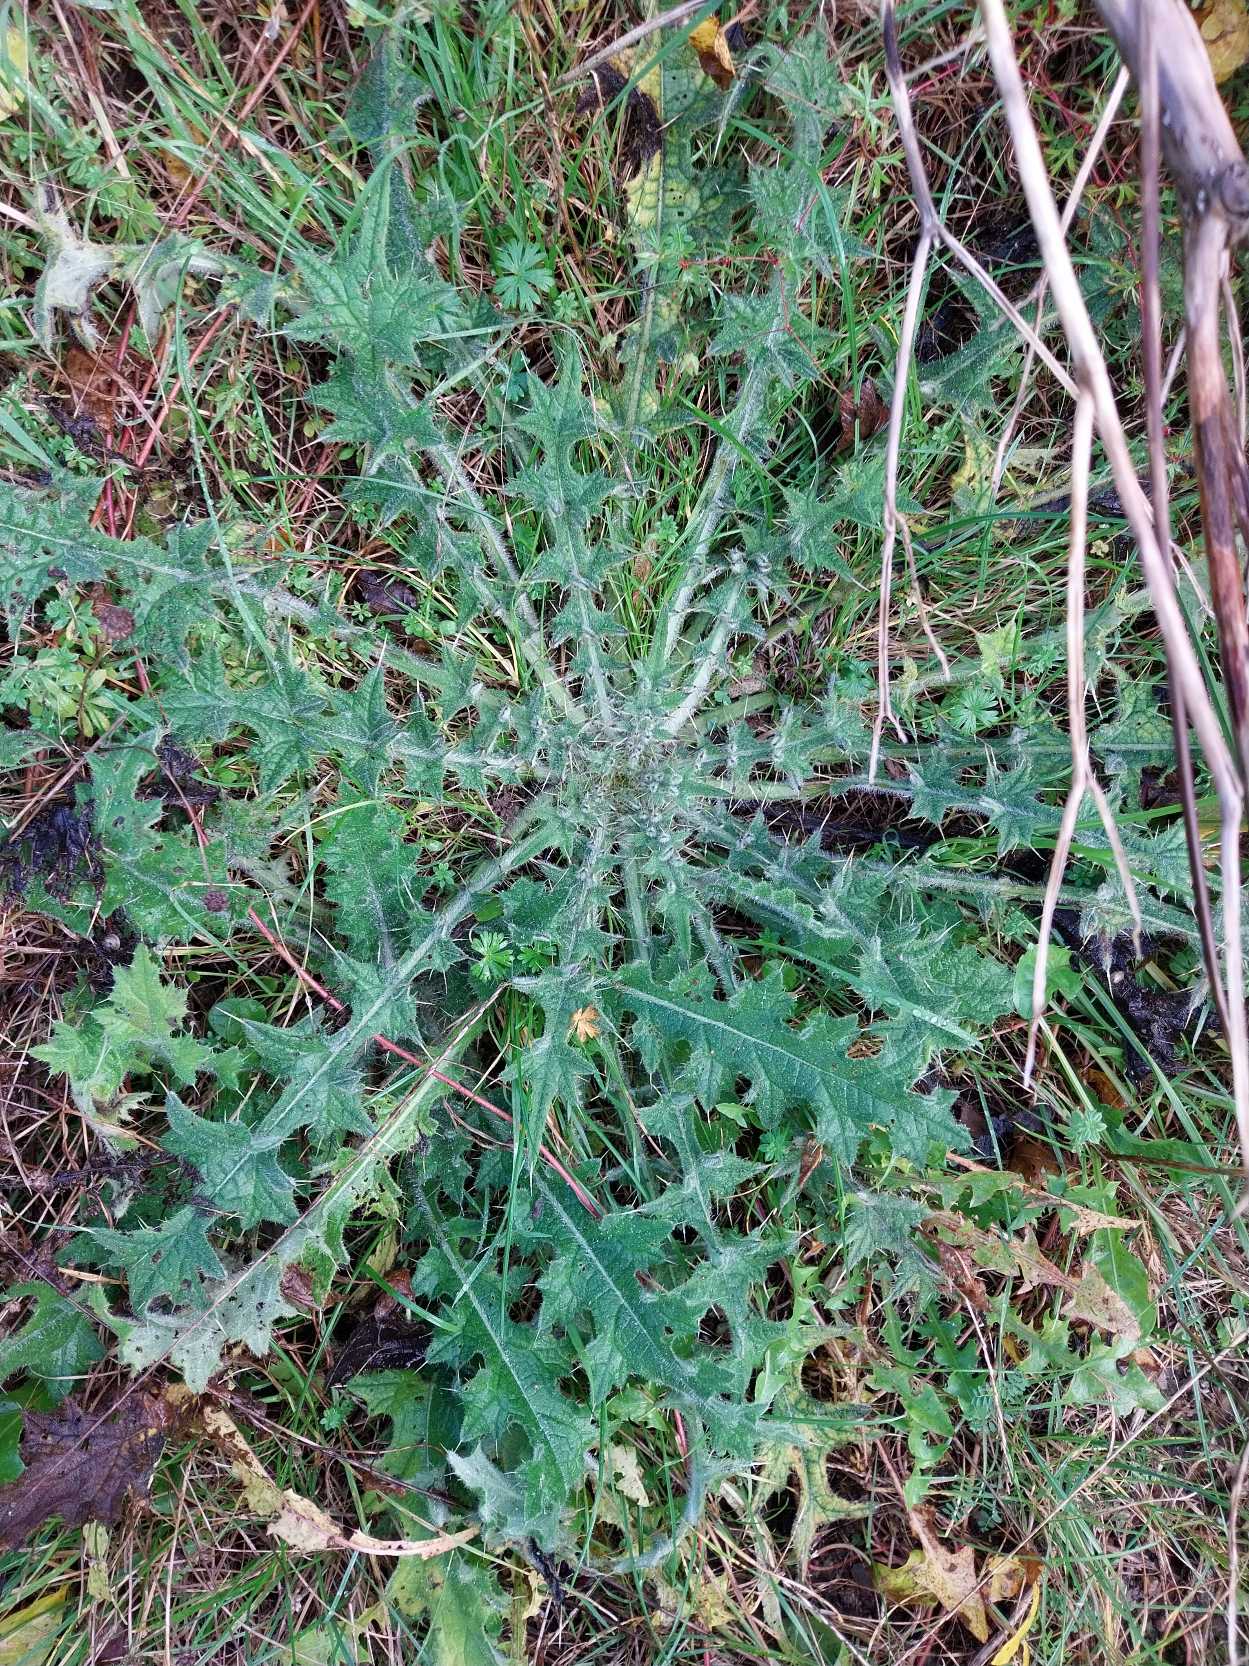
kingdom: Plantae
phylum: Tracheophyta
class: Magnoliopsida
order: Asterales
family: Asteraceae
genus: Cirsium
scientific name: Cirsium vulgare
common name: Horse-tidsel
